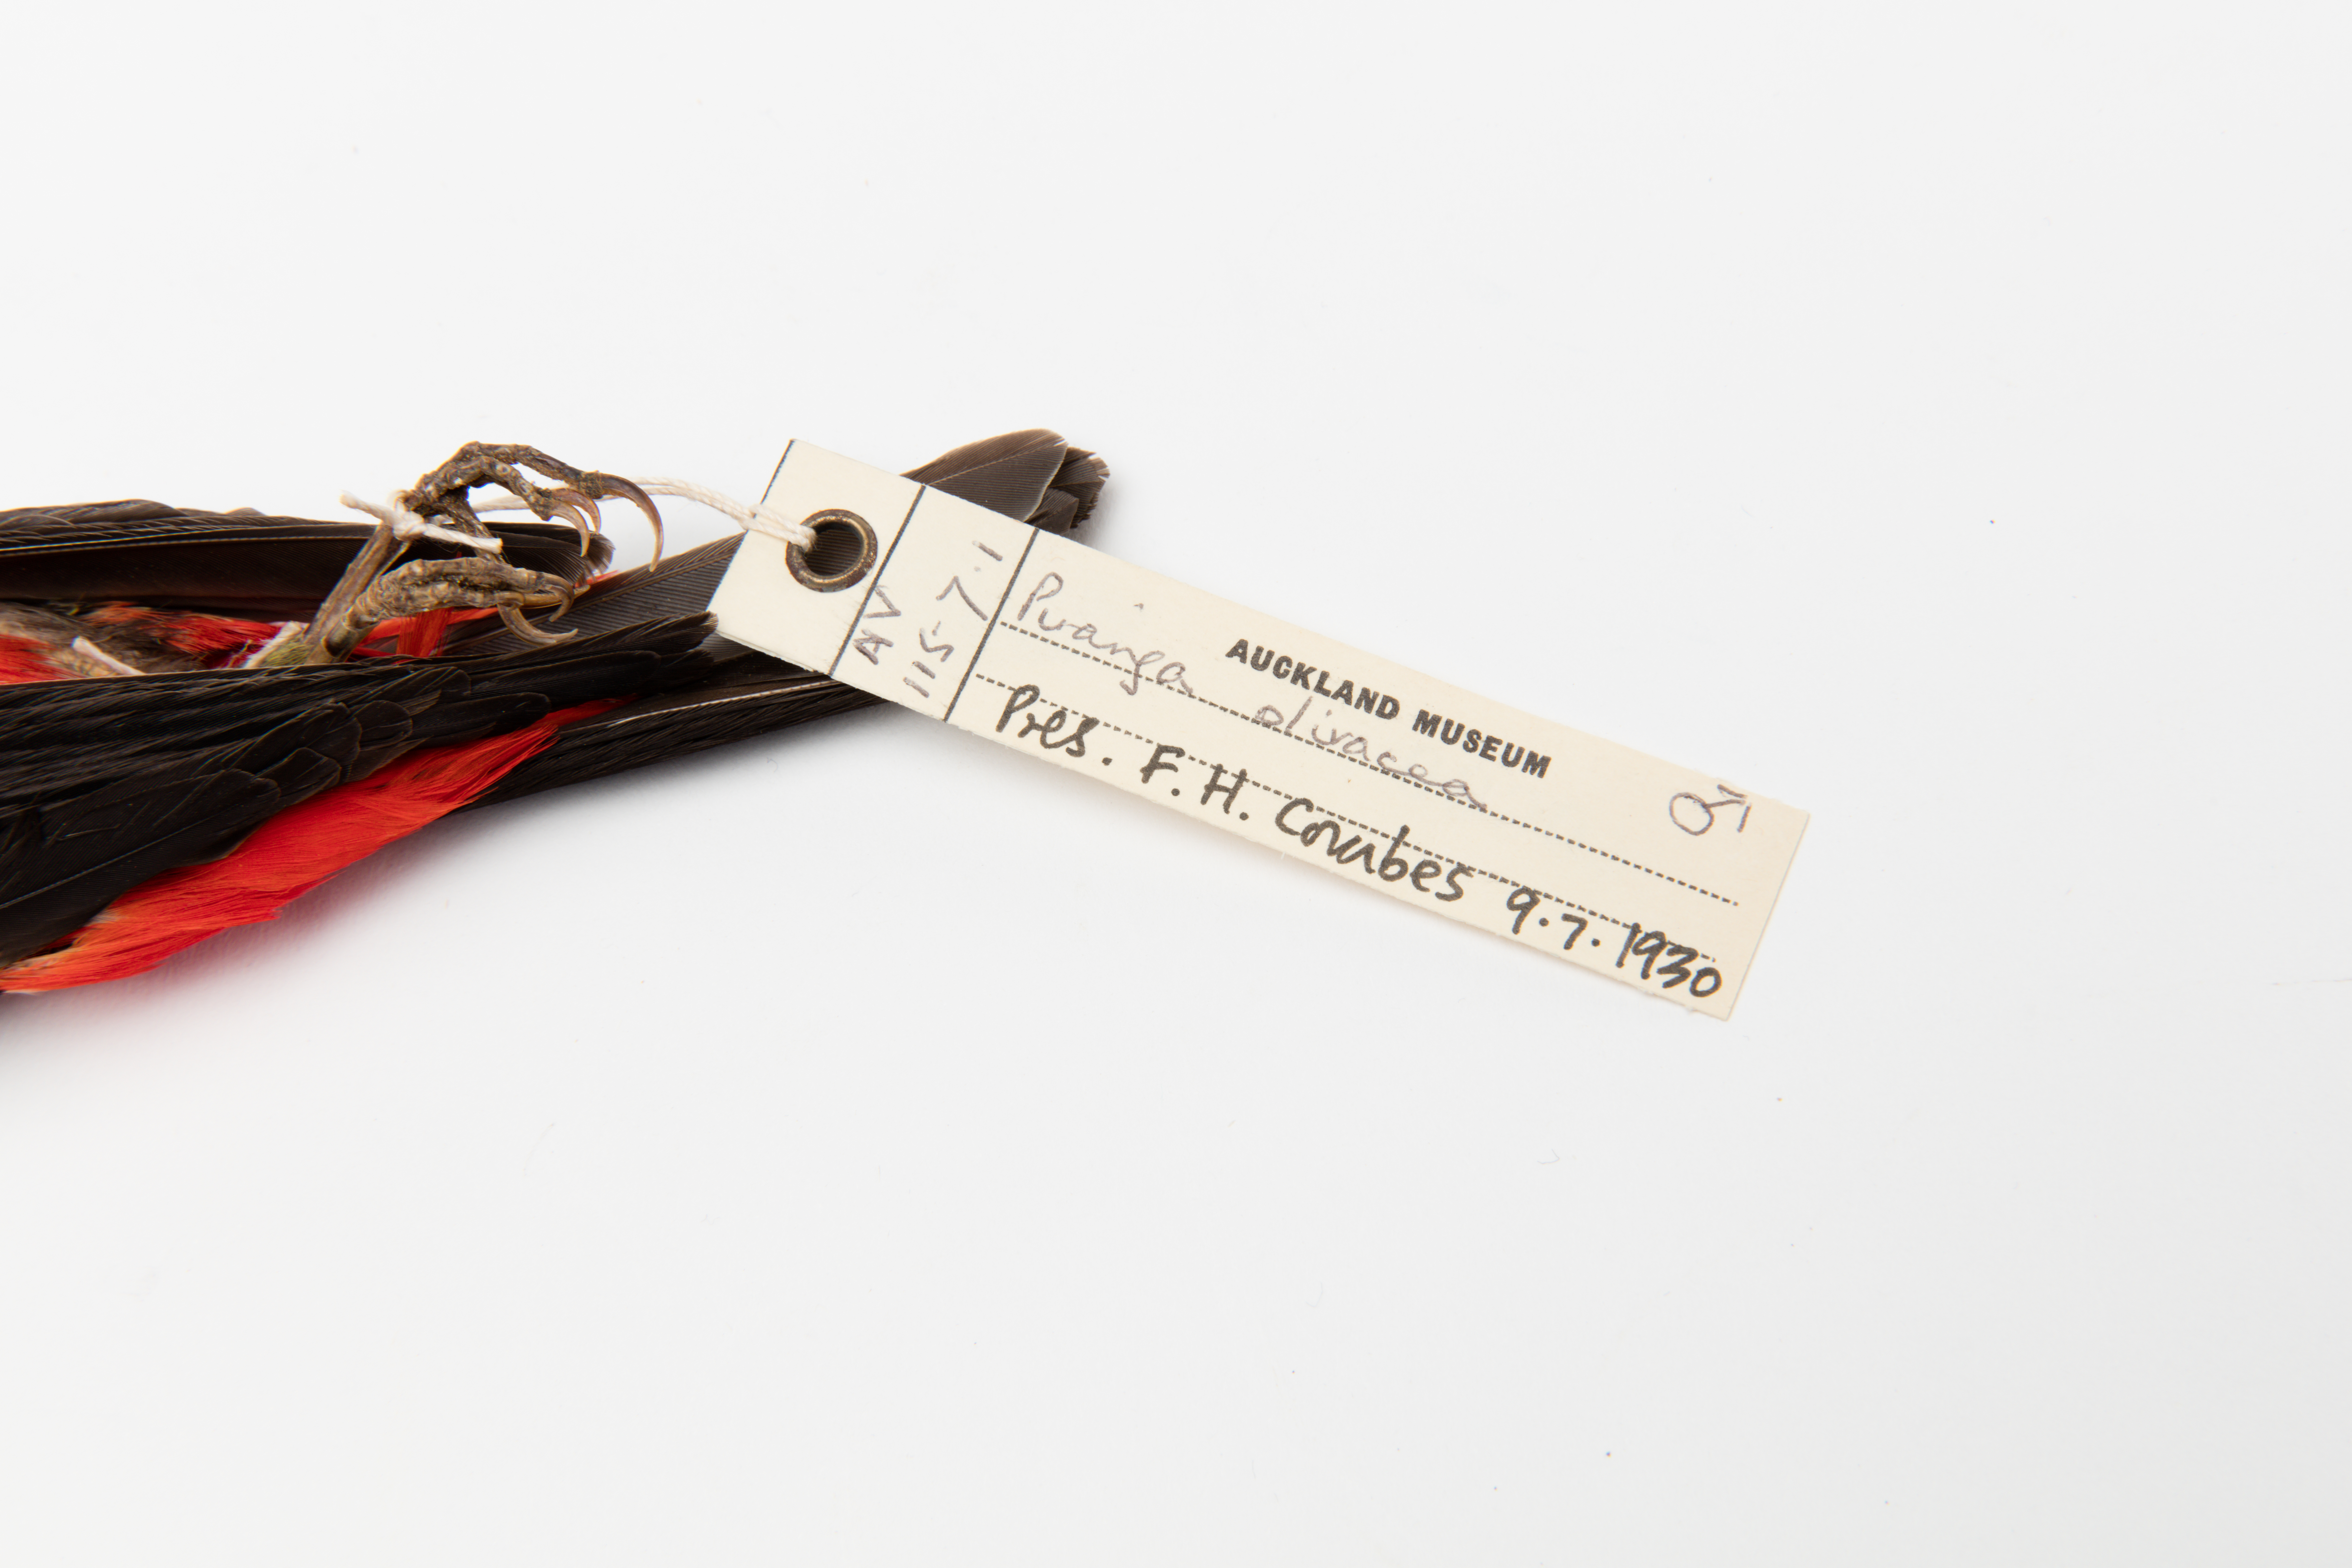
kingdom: Animalia
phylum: Chordata
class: Aves
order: Passeriformes
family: Cardinalidae
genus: Piranga
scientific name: Piranga olivacea
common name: Scarlet tanager
